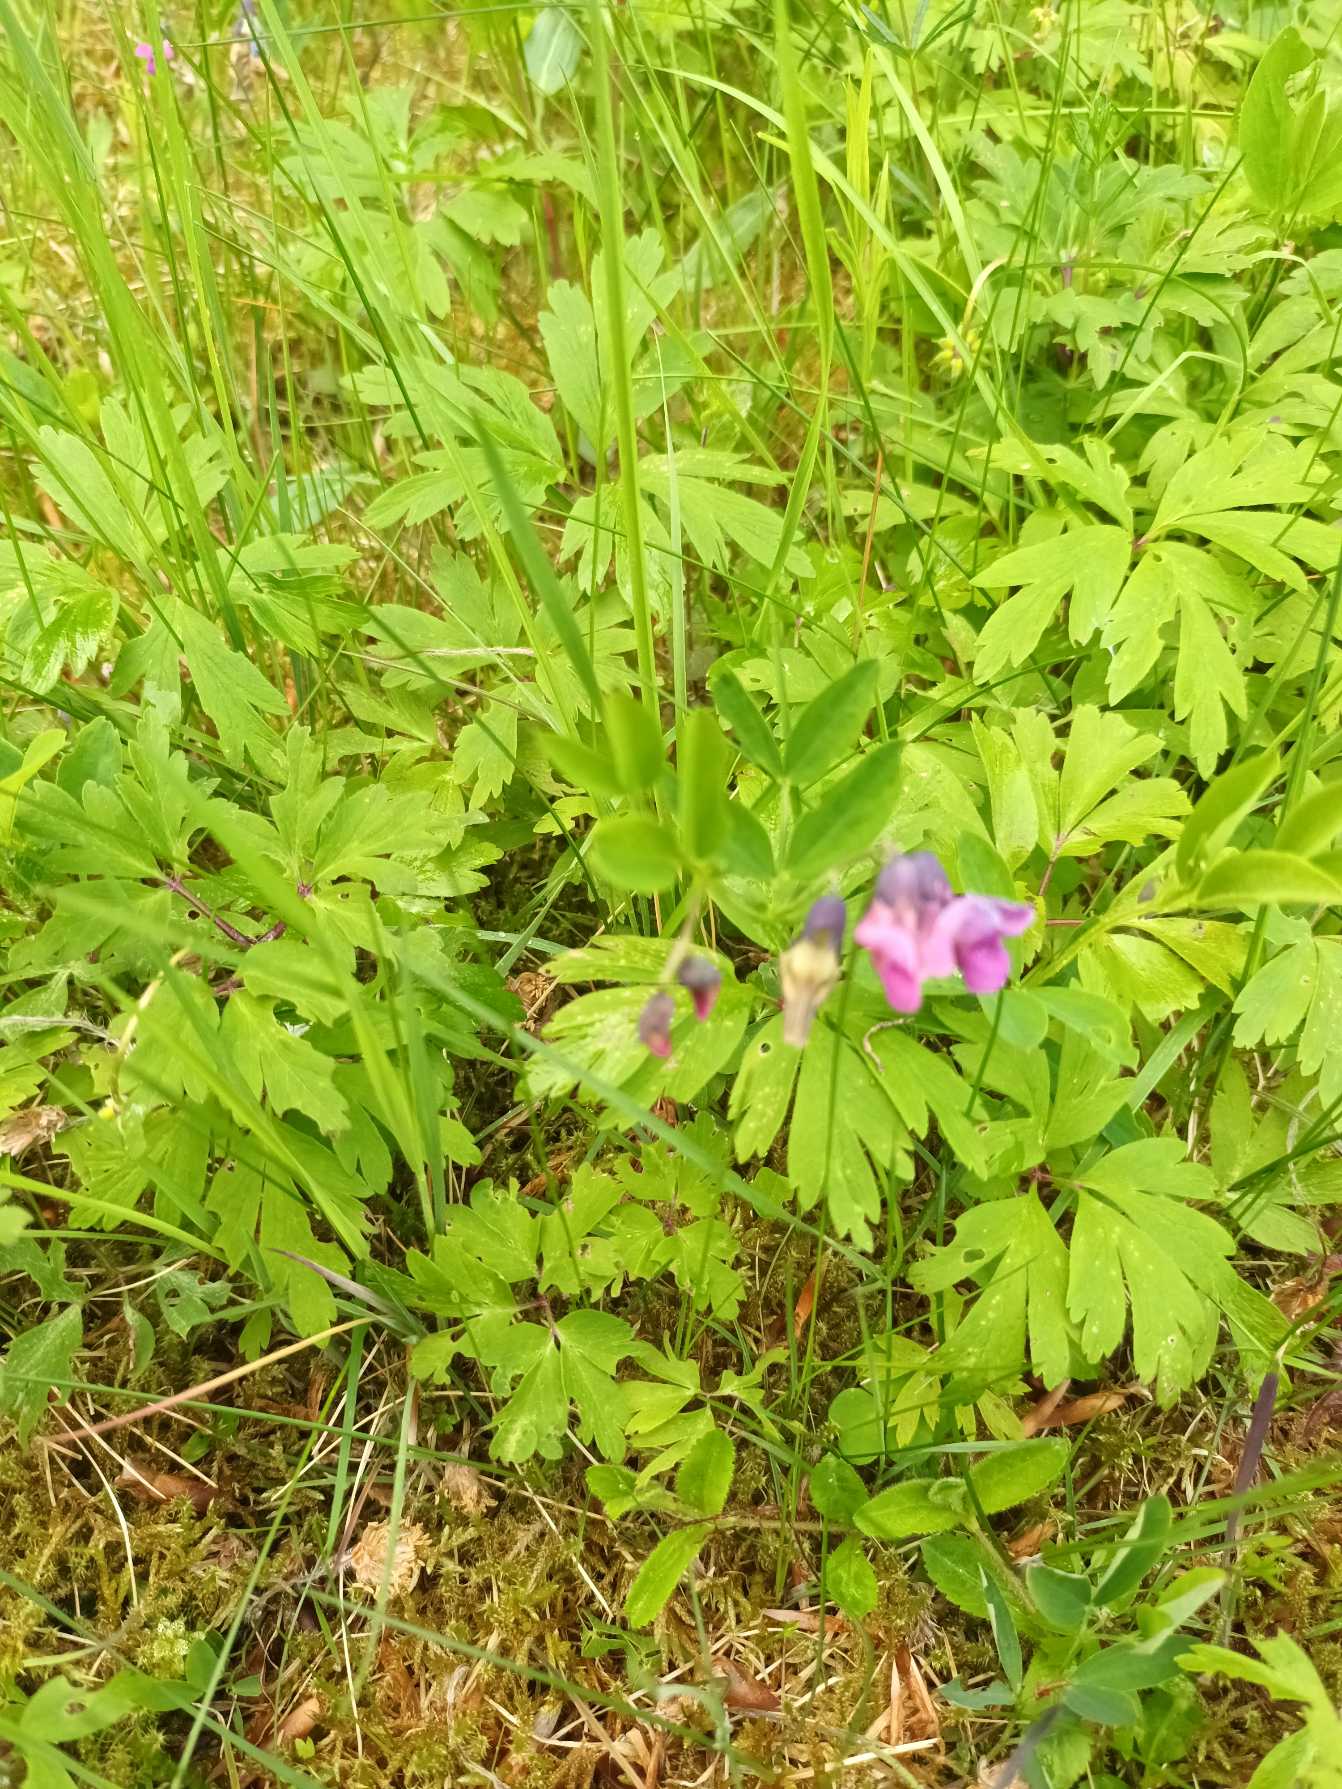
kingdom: Plantae
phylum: Tracheophyta
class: Magnoliopsida
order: Fabales
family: Fabaceae
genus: Lathyrus
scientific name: Lathyrus linifolius
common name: Krat-fladbælg
